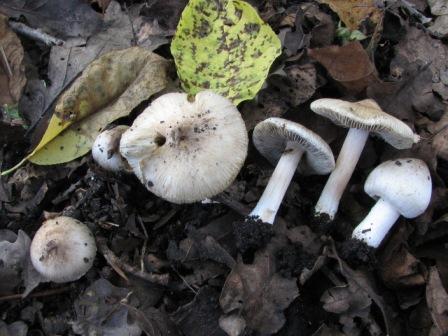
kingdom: Fungi
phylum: Basidiomycota
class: Agaricomycetes
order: Agaricales
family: Inocybaceae
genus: Pseudosperma
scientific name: Pseudosperma
